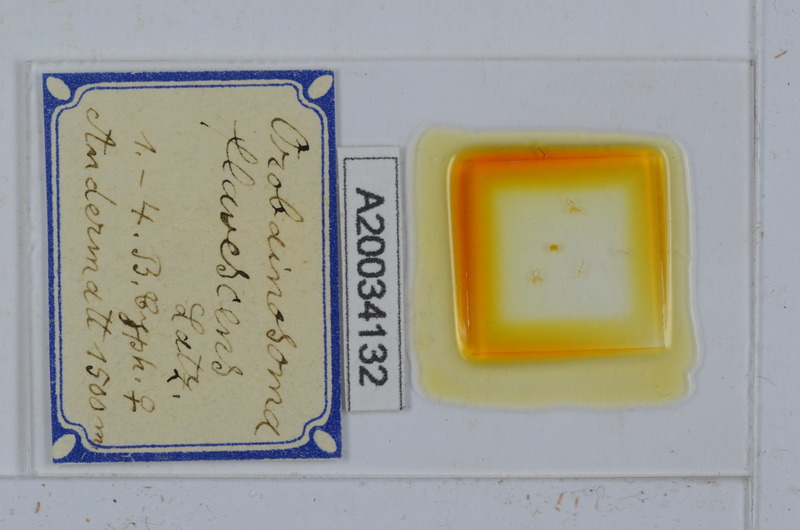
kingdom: Animalia
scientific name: Animalia
